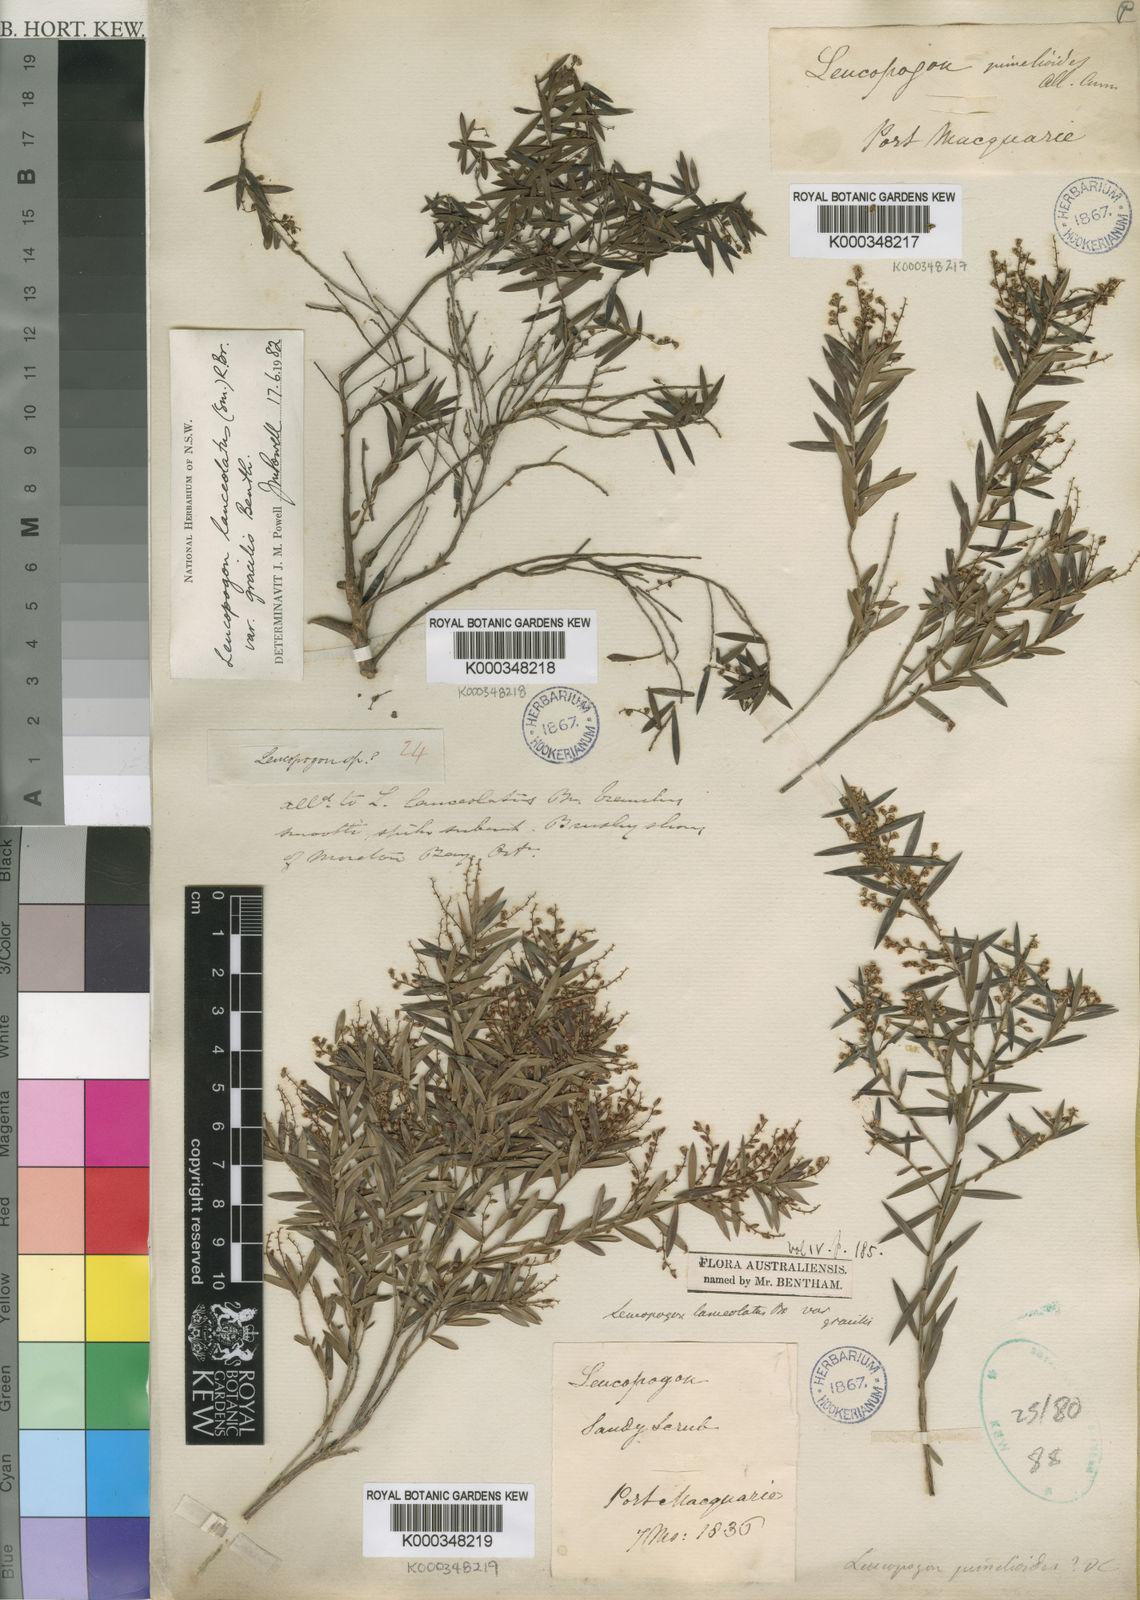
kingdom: Plantae
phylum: Tracheophyta
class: Magnoliopsida
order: Ericales
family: Ericaceae
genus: Leucopogon
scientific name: Leucopogon
